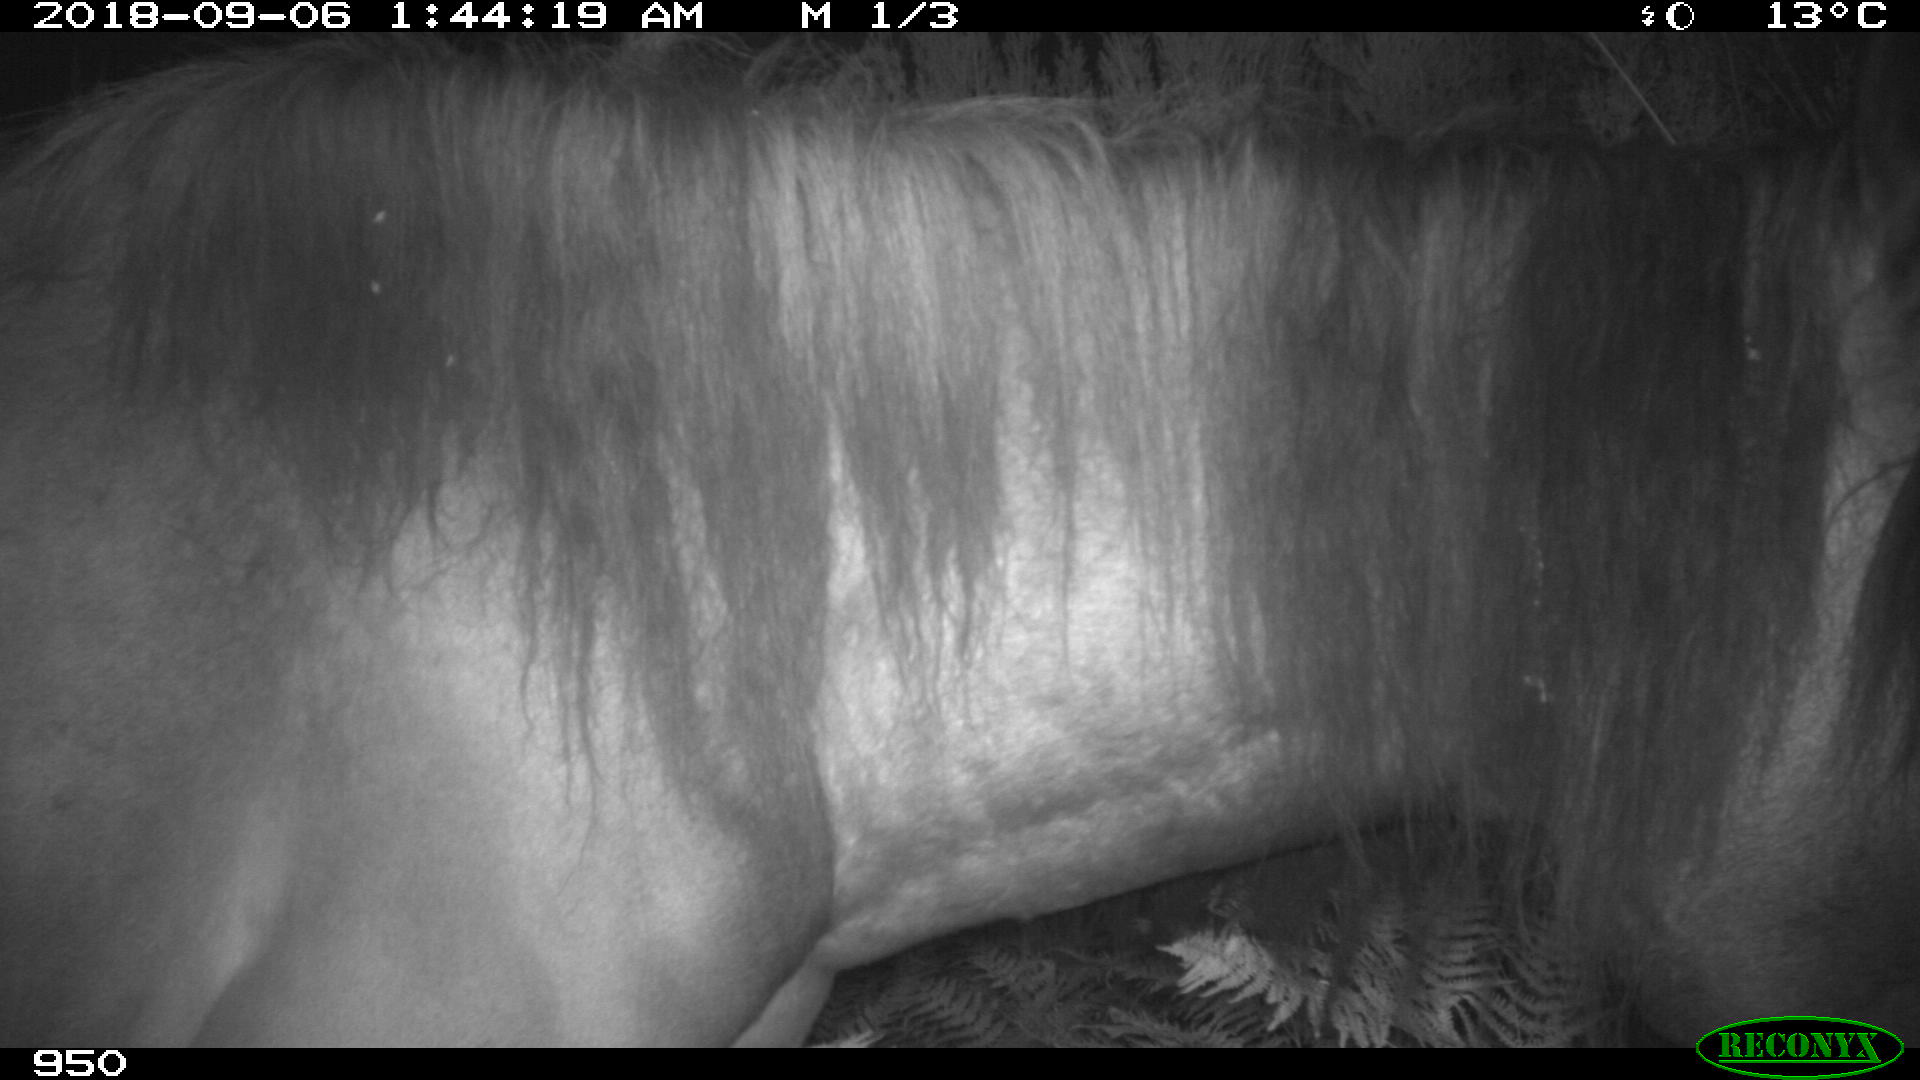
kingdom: Animalia
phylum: Chordata
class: Mammalia
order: Perissodactyla
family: Equidae
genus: Equus
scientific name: Equus caballus
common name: Horse
